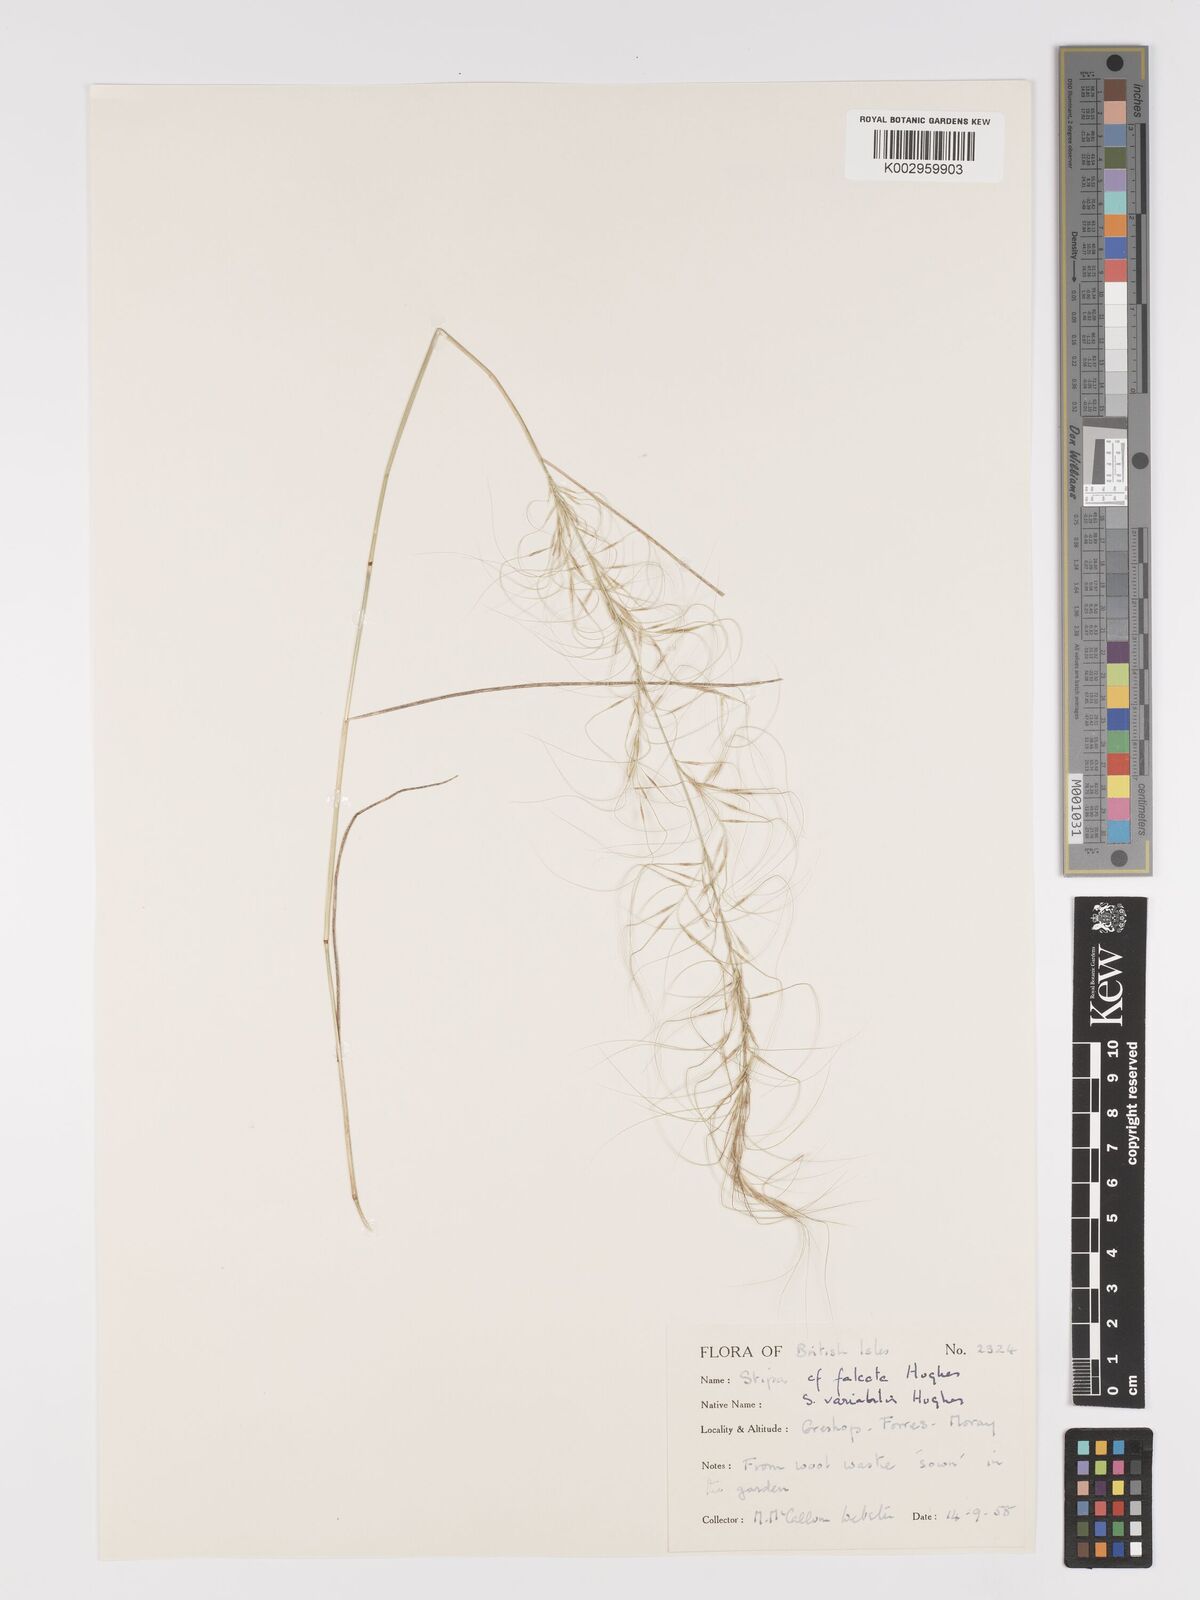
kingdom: Plantae
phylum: Tracheophyta
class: Liliopsida
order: Poales
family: Poaceae
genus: Austrostipa
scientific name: Austrostipa variabilis
